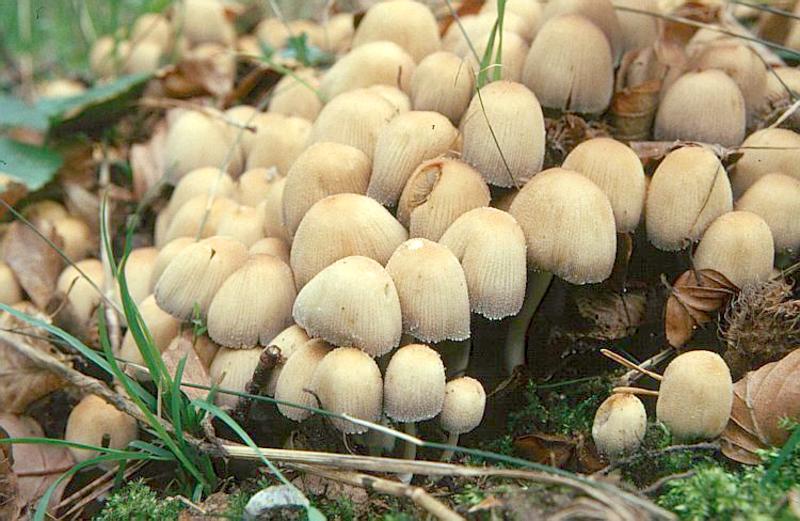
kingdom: Fungi
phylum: Basidiomycota
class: Agaricomycetes
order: Agaricales
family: Psathyrellaceae
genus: Coprinellus
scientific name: Coprinellus micaceus
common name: Glistening ink-cap
